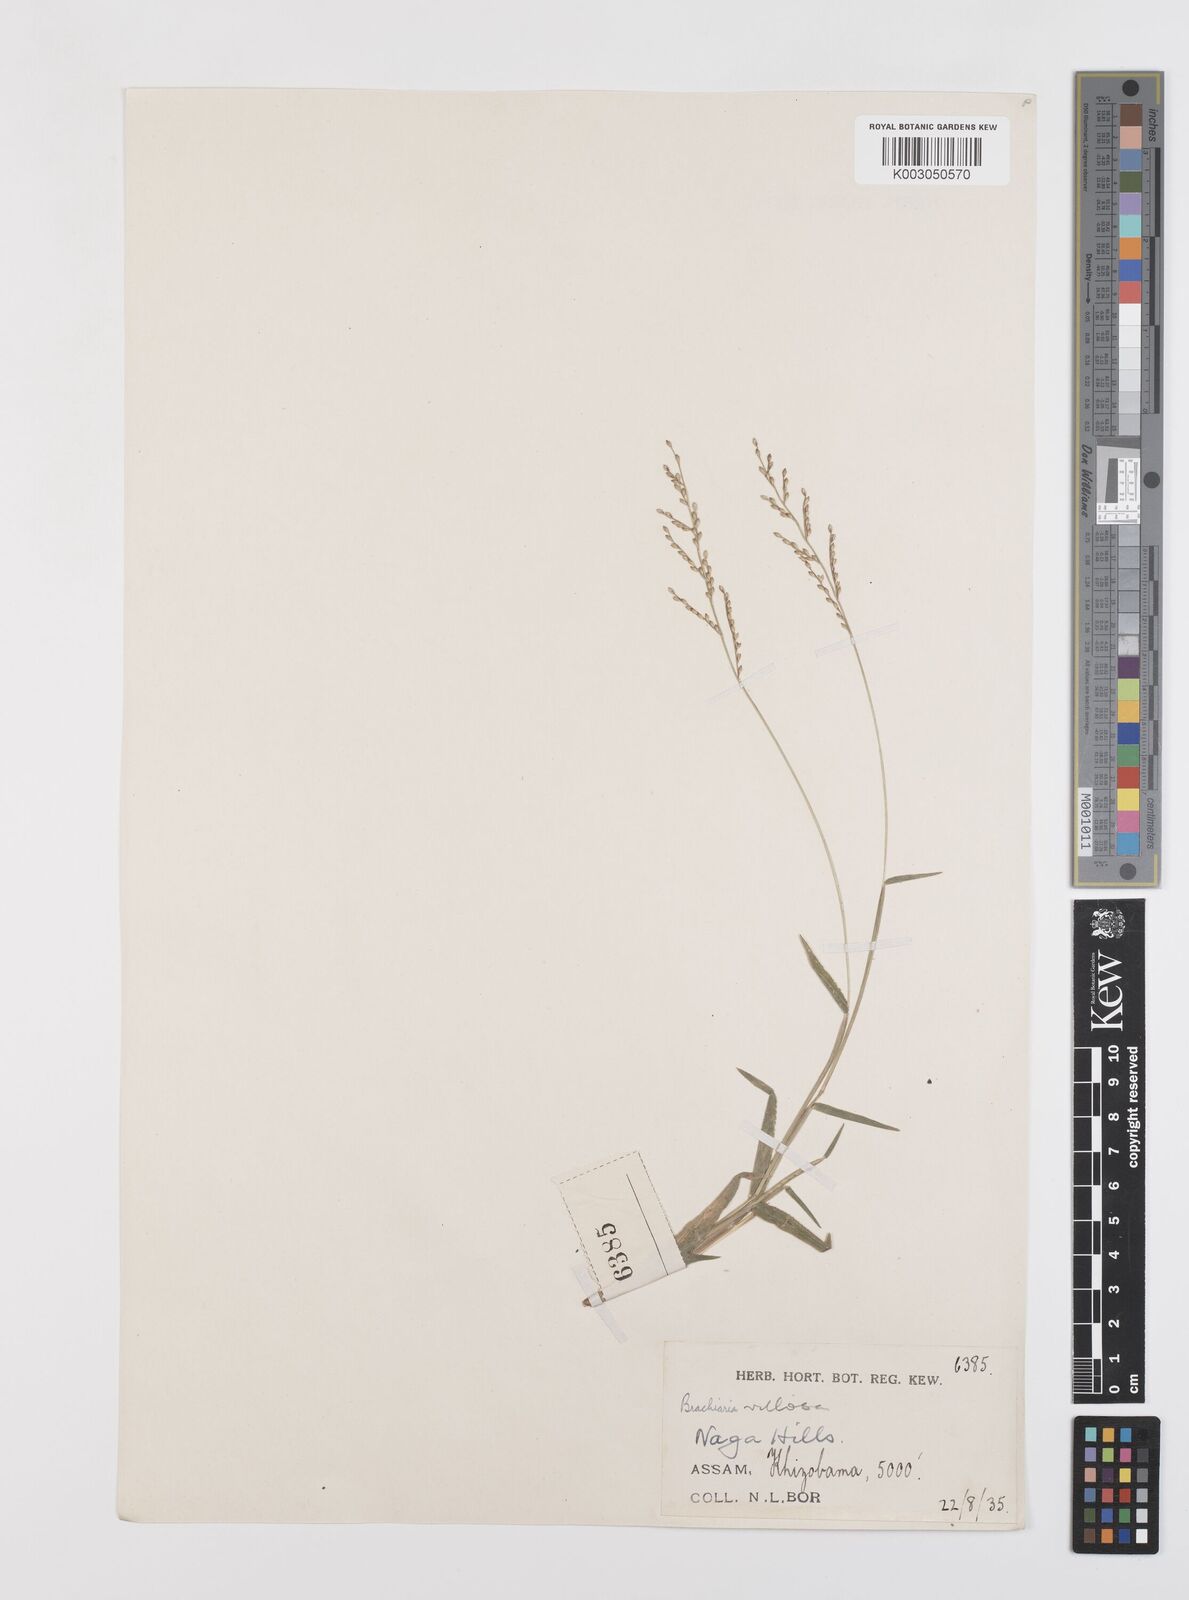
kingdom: Plantae
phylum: Tracheophyta
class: Liliopsida
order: Poales
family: Poaceae
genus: Urochloa
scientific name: Urochloa villosa
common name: Hairy signalgrass
